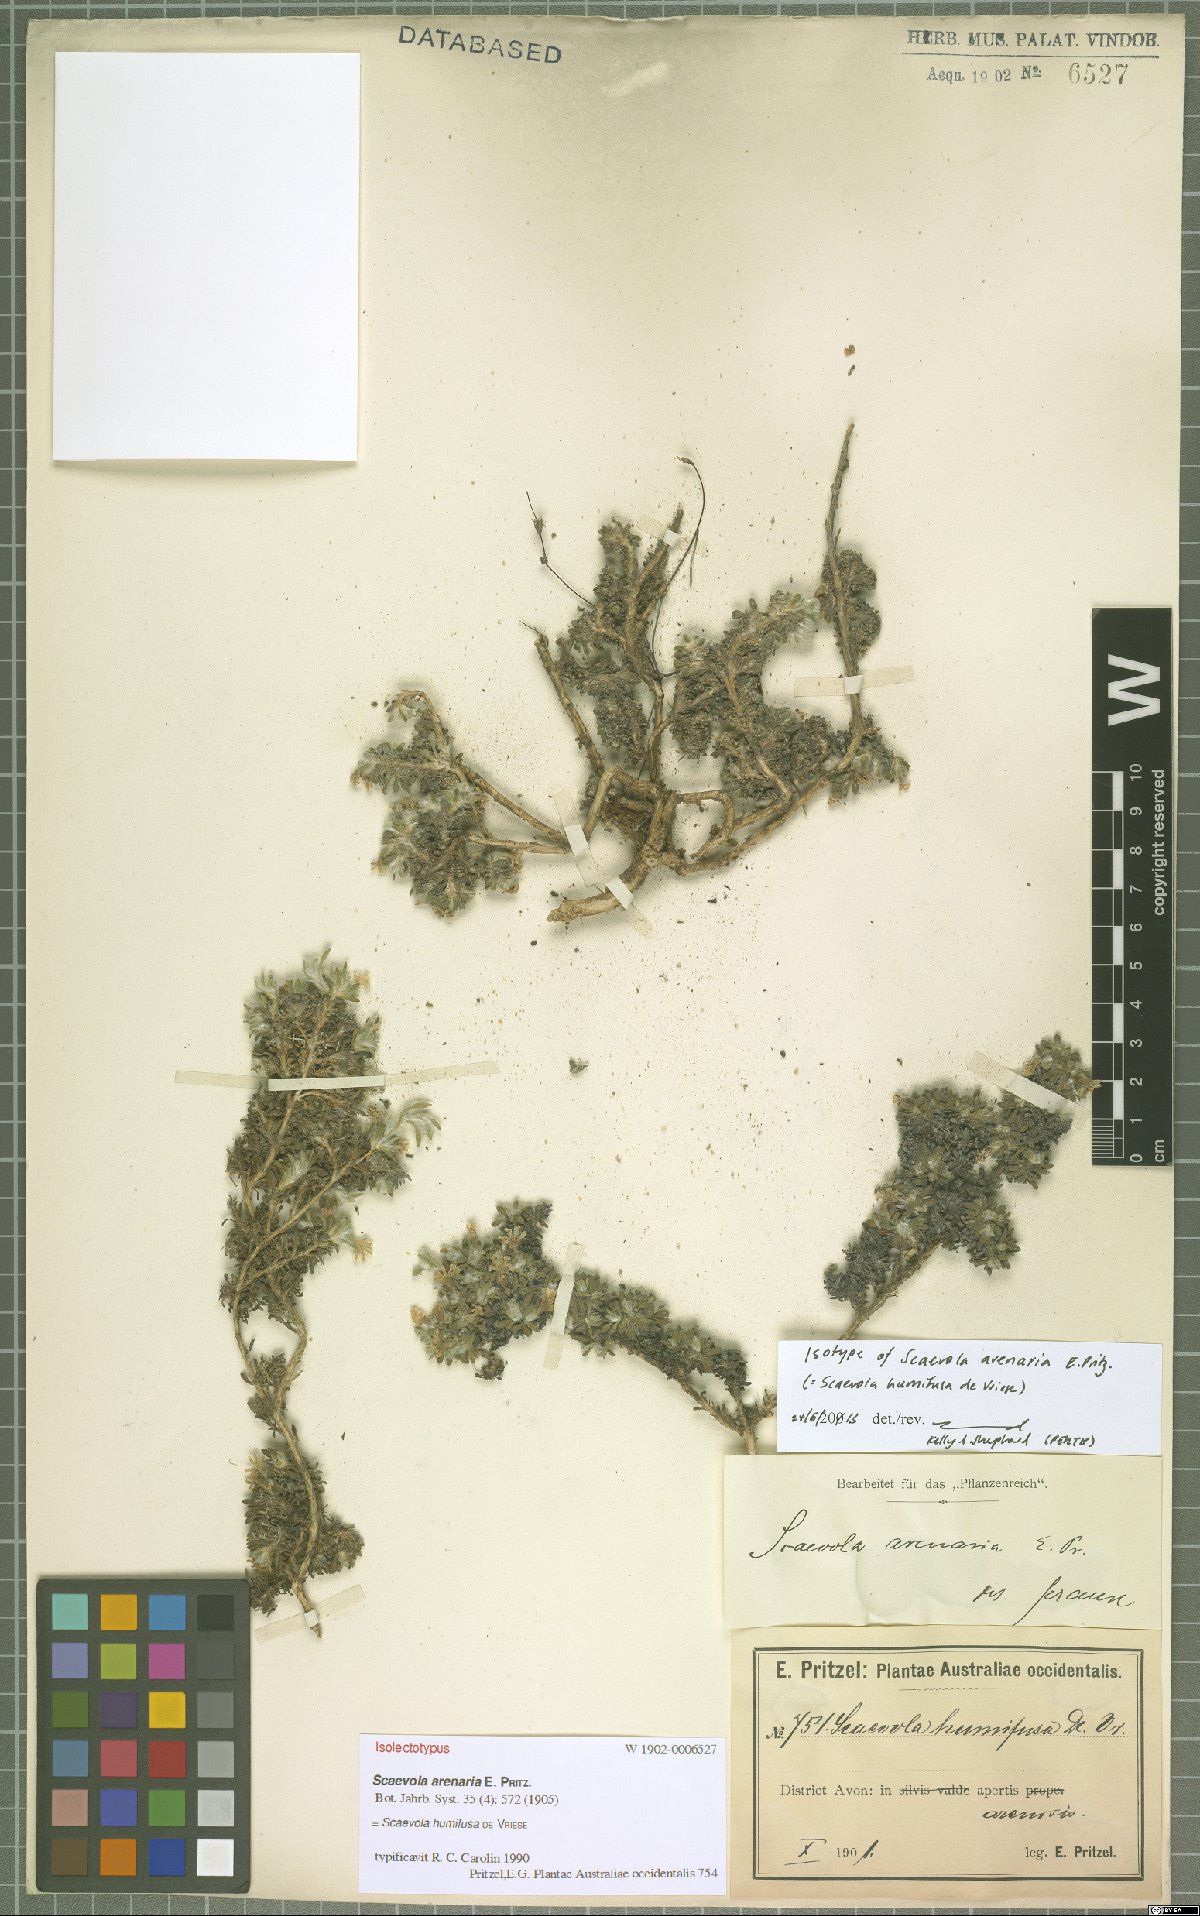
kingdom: Plantae
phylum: Tracheophyta
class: Magnoliopsida
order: Asterales
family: Goodeniaceae
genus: Scaevola
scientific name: Scaevola humifusa
